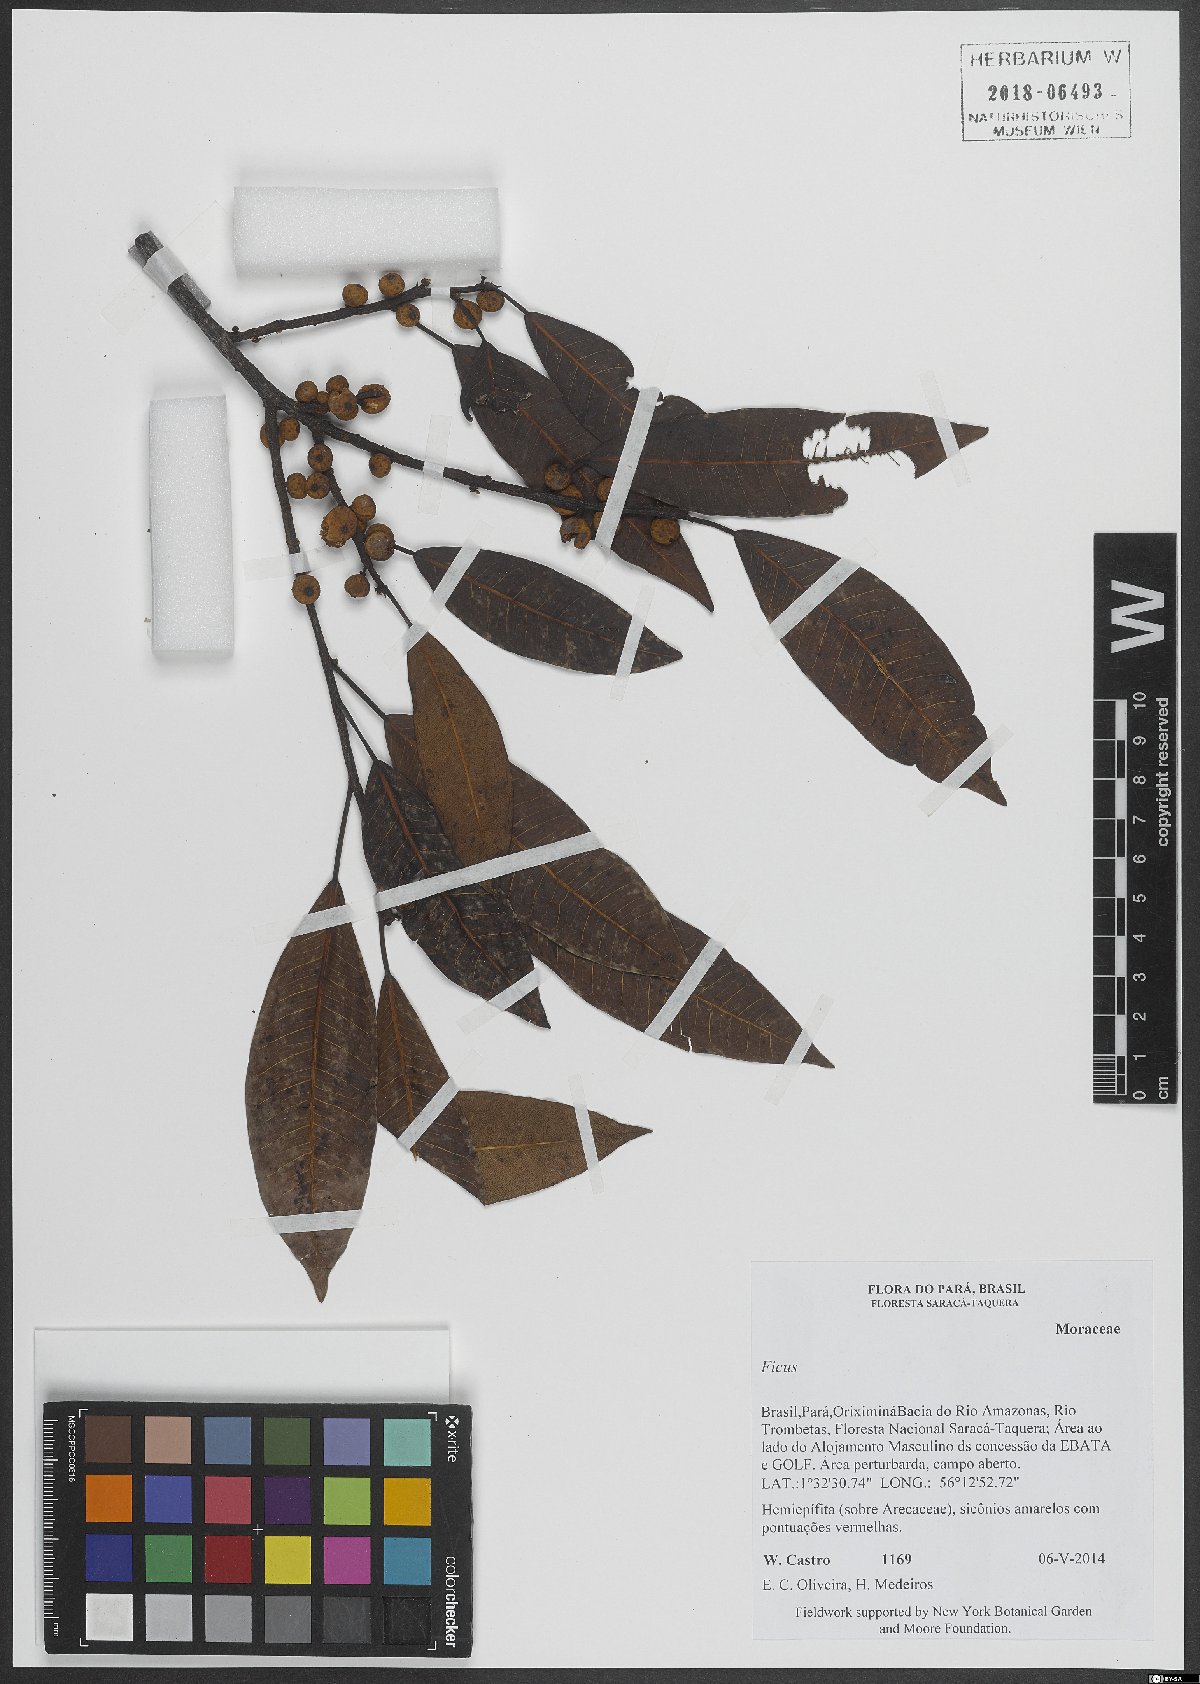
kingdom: Plantae
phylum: Tracheophyta
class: Magnoliopsida
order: Rosales
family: Moraceae
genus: Ficus
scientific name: Ficus
